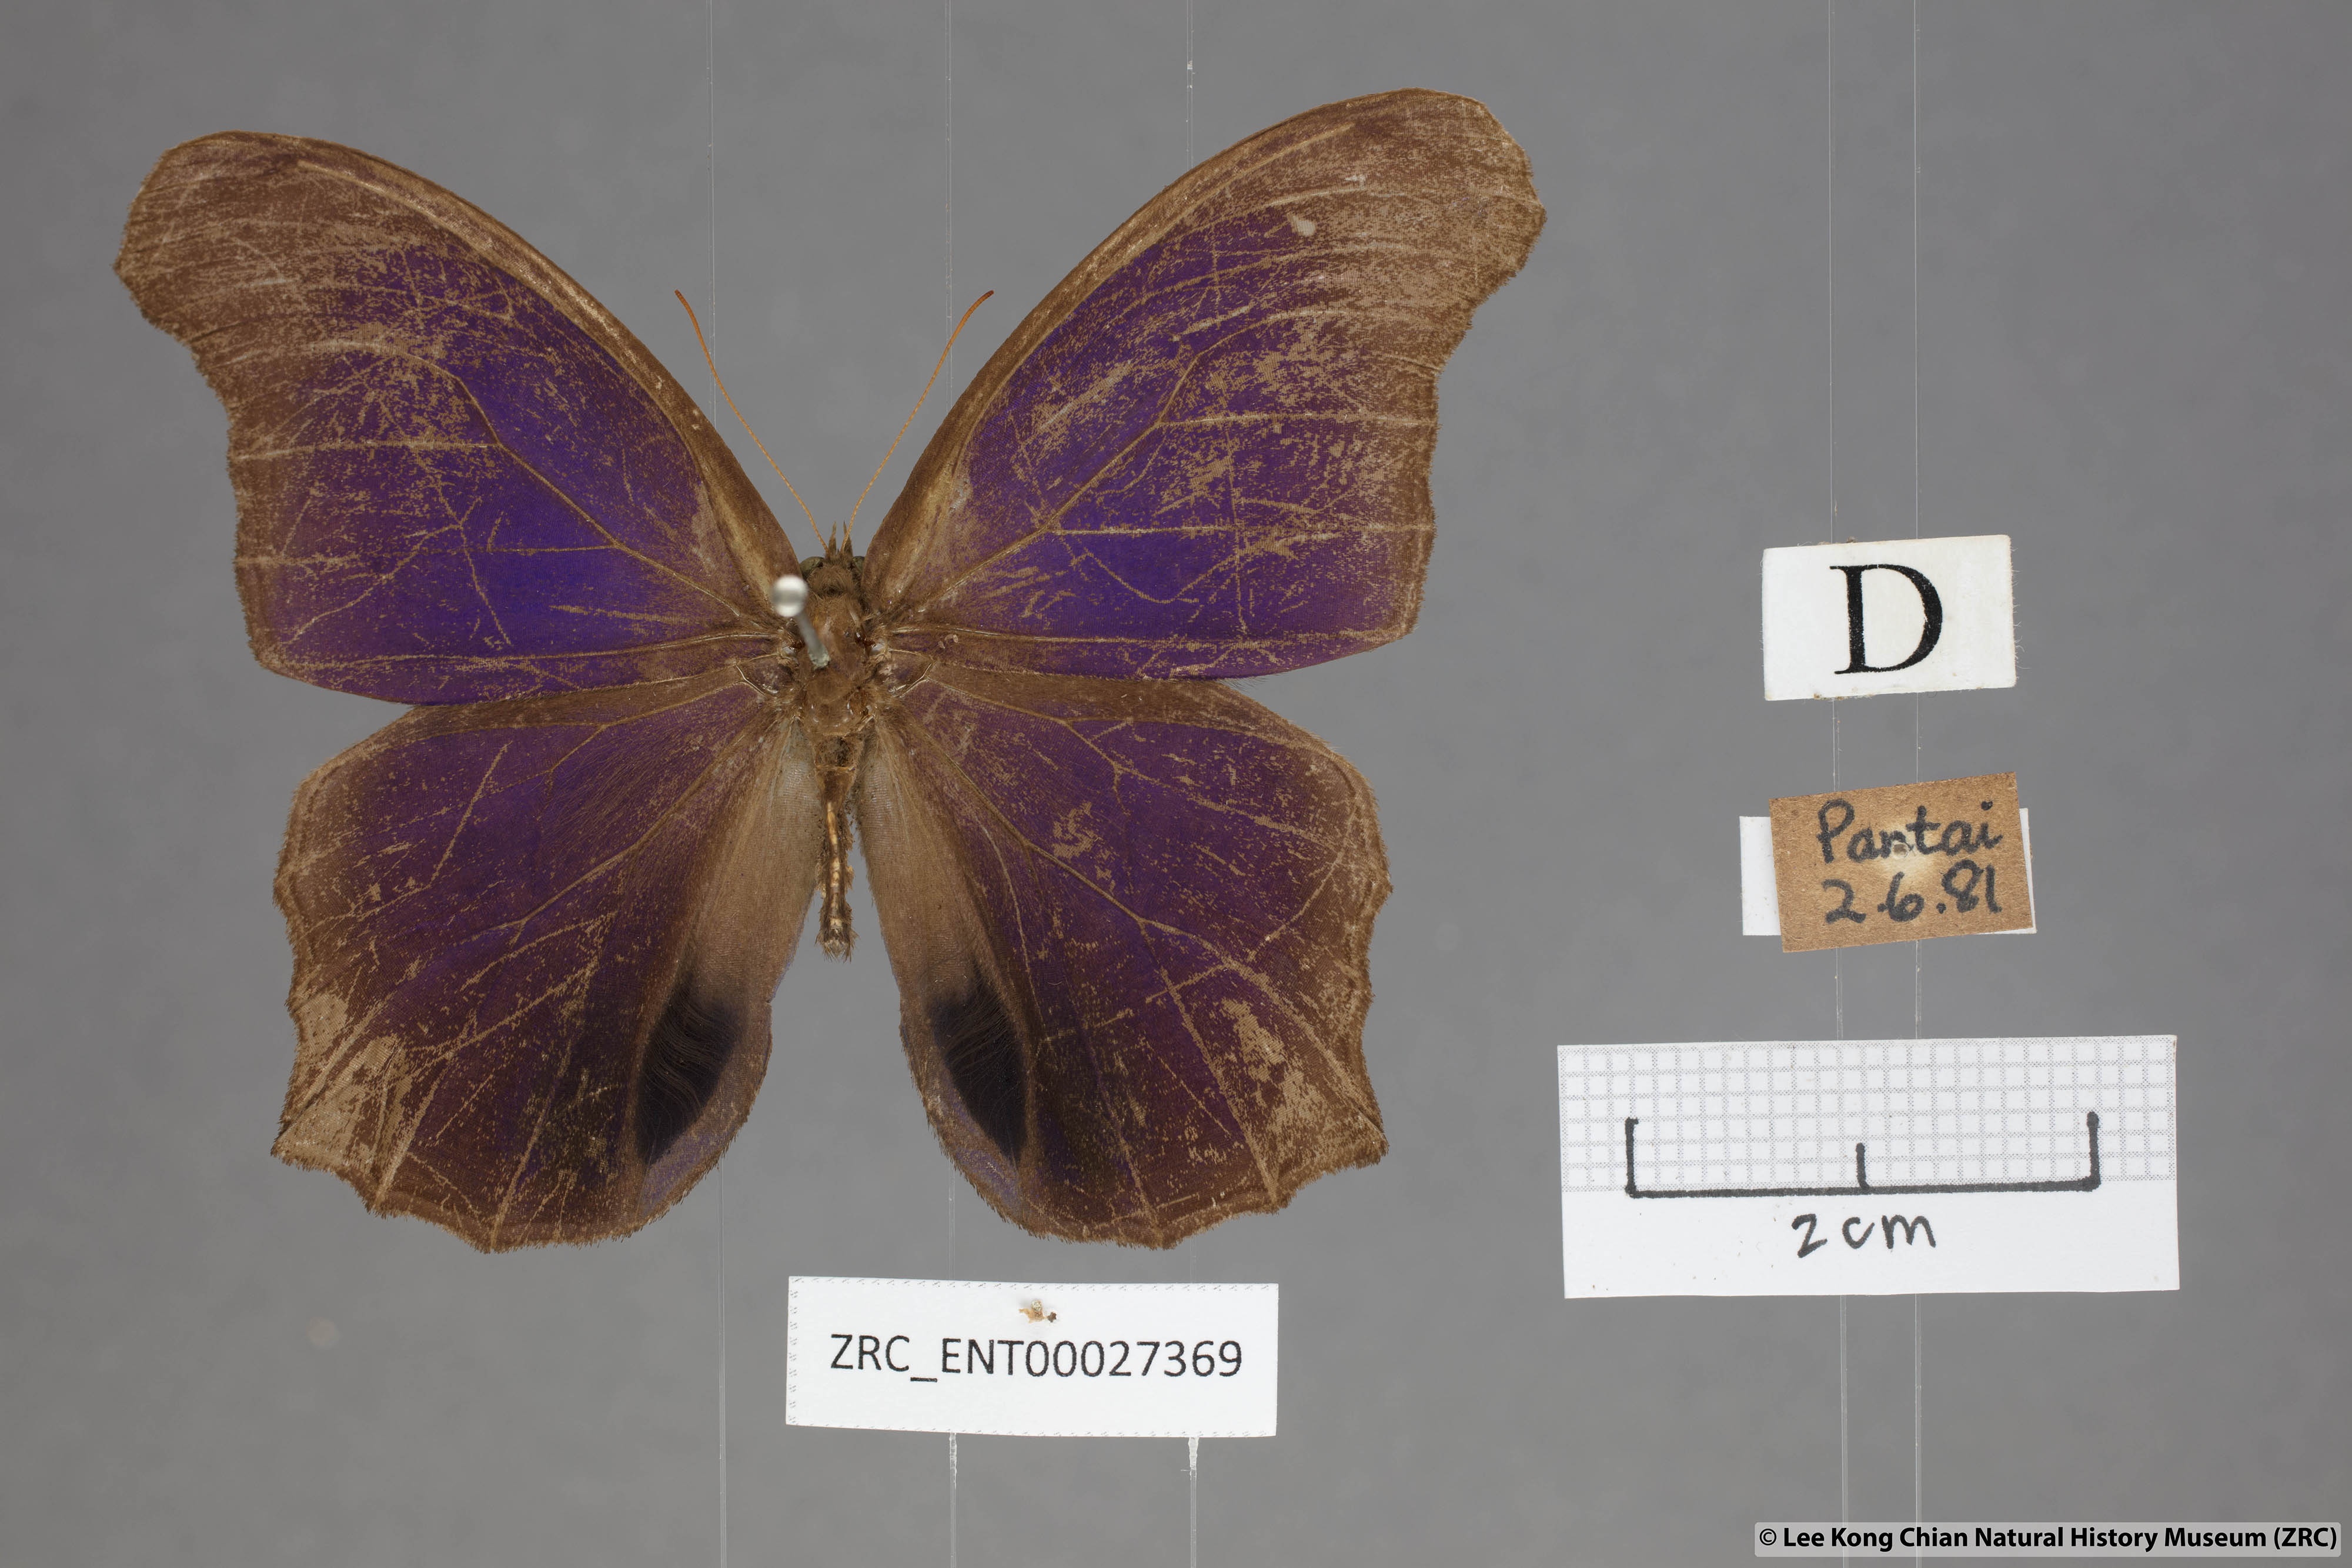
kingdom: Animalia
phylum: Arthropoda
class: Insecta
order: Lepidoptera
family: Nymphalidae
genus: Coelites
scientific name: Coelites epiminthia
